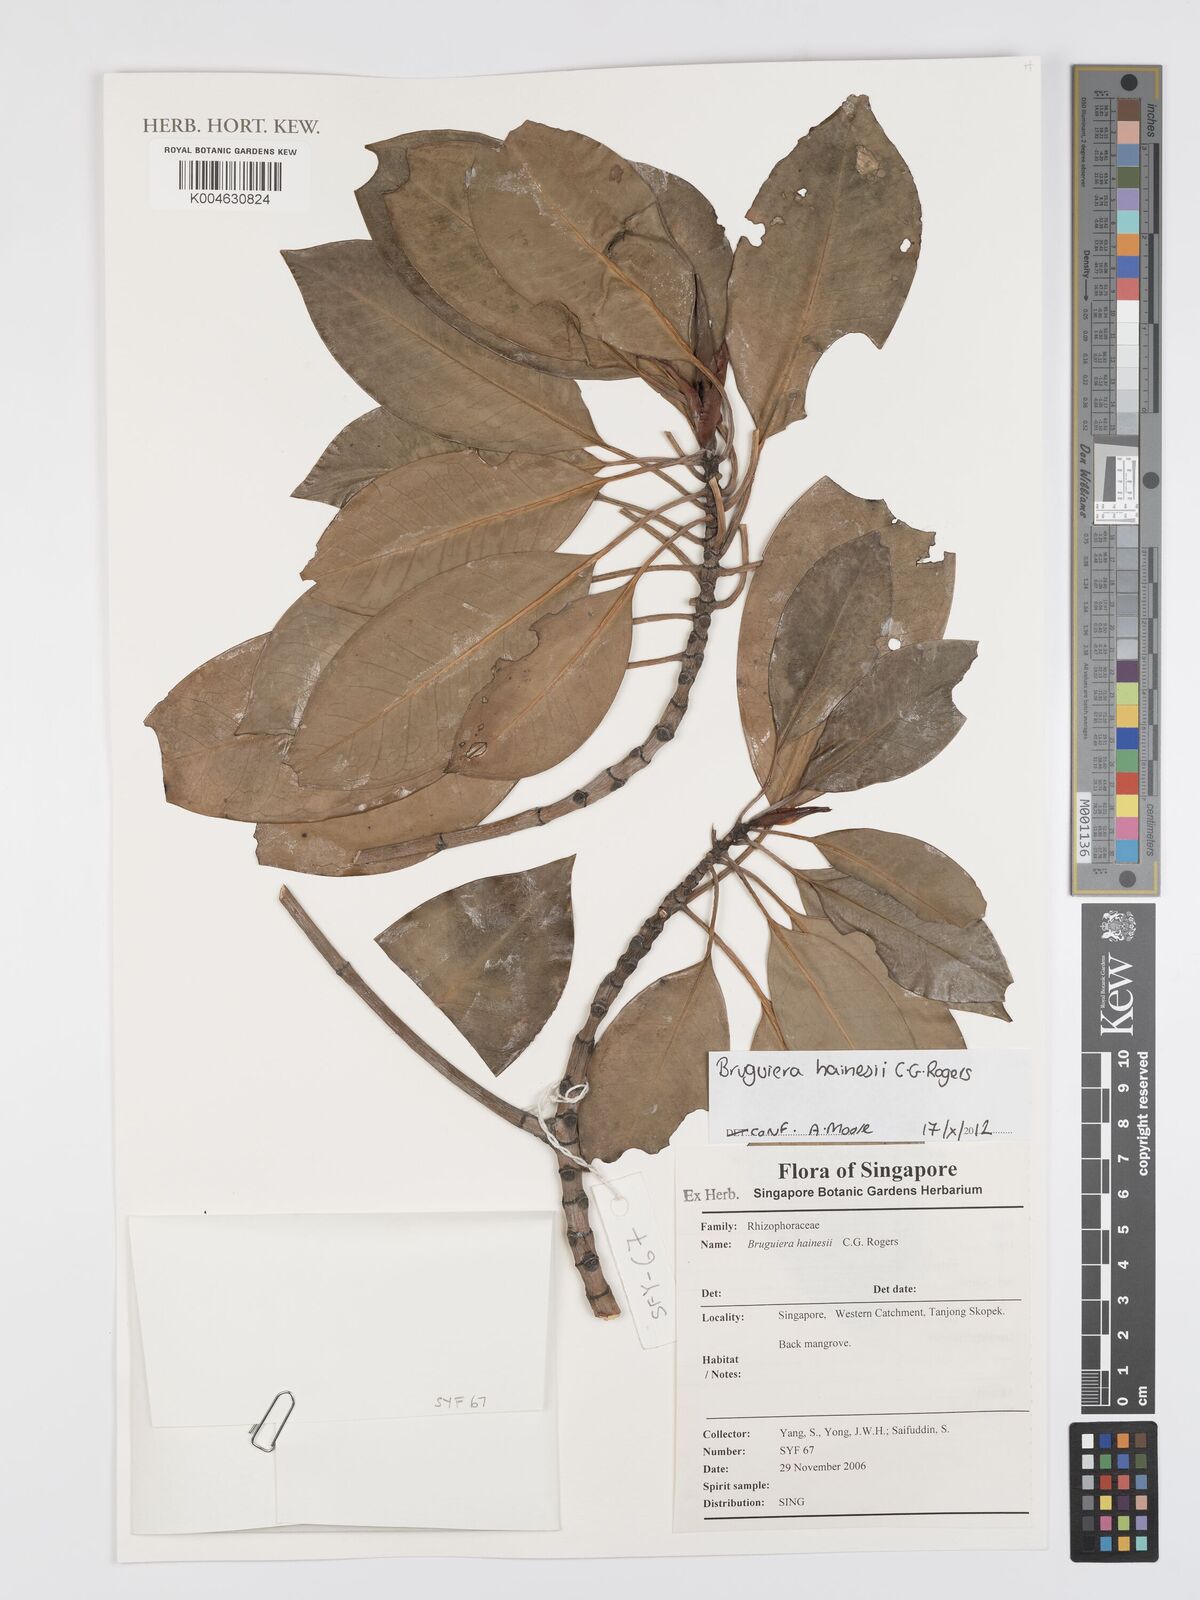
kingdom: Plantae
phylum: Tracheophyta
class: Magnoliopsida
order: Malpighiales
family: Rhizophoraceae
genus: Bruguiera
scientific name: Bruguiera hainesii
